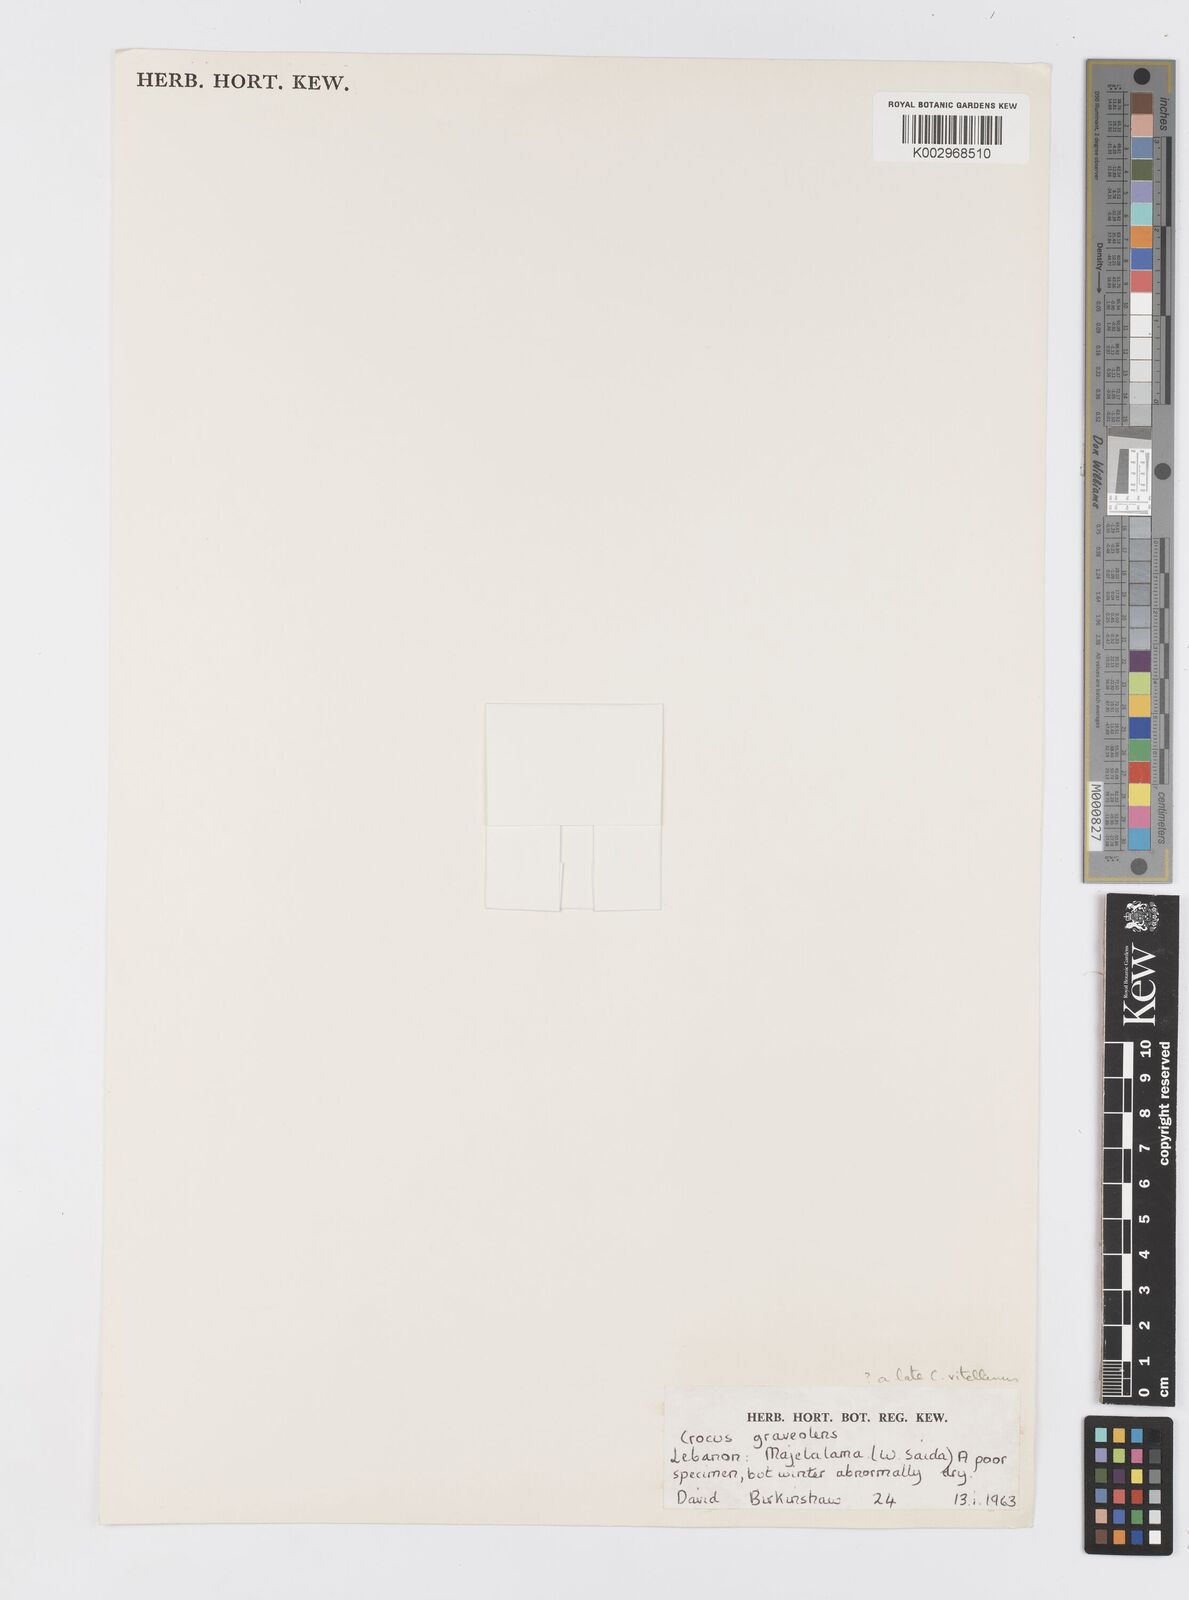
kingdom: Plantae
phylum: Tracheophyta
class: Liliopsida
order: Asparagales
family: Iridaceae
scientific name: Iridaceae
